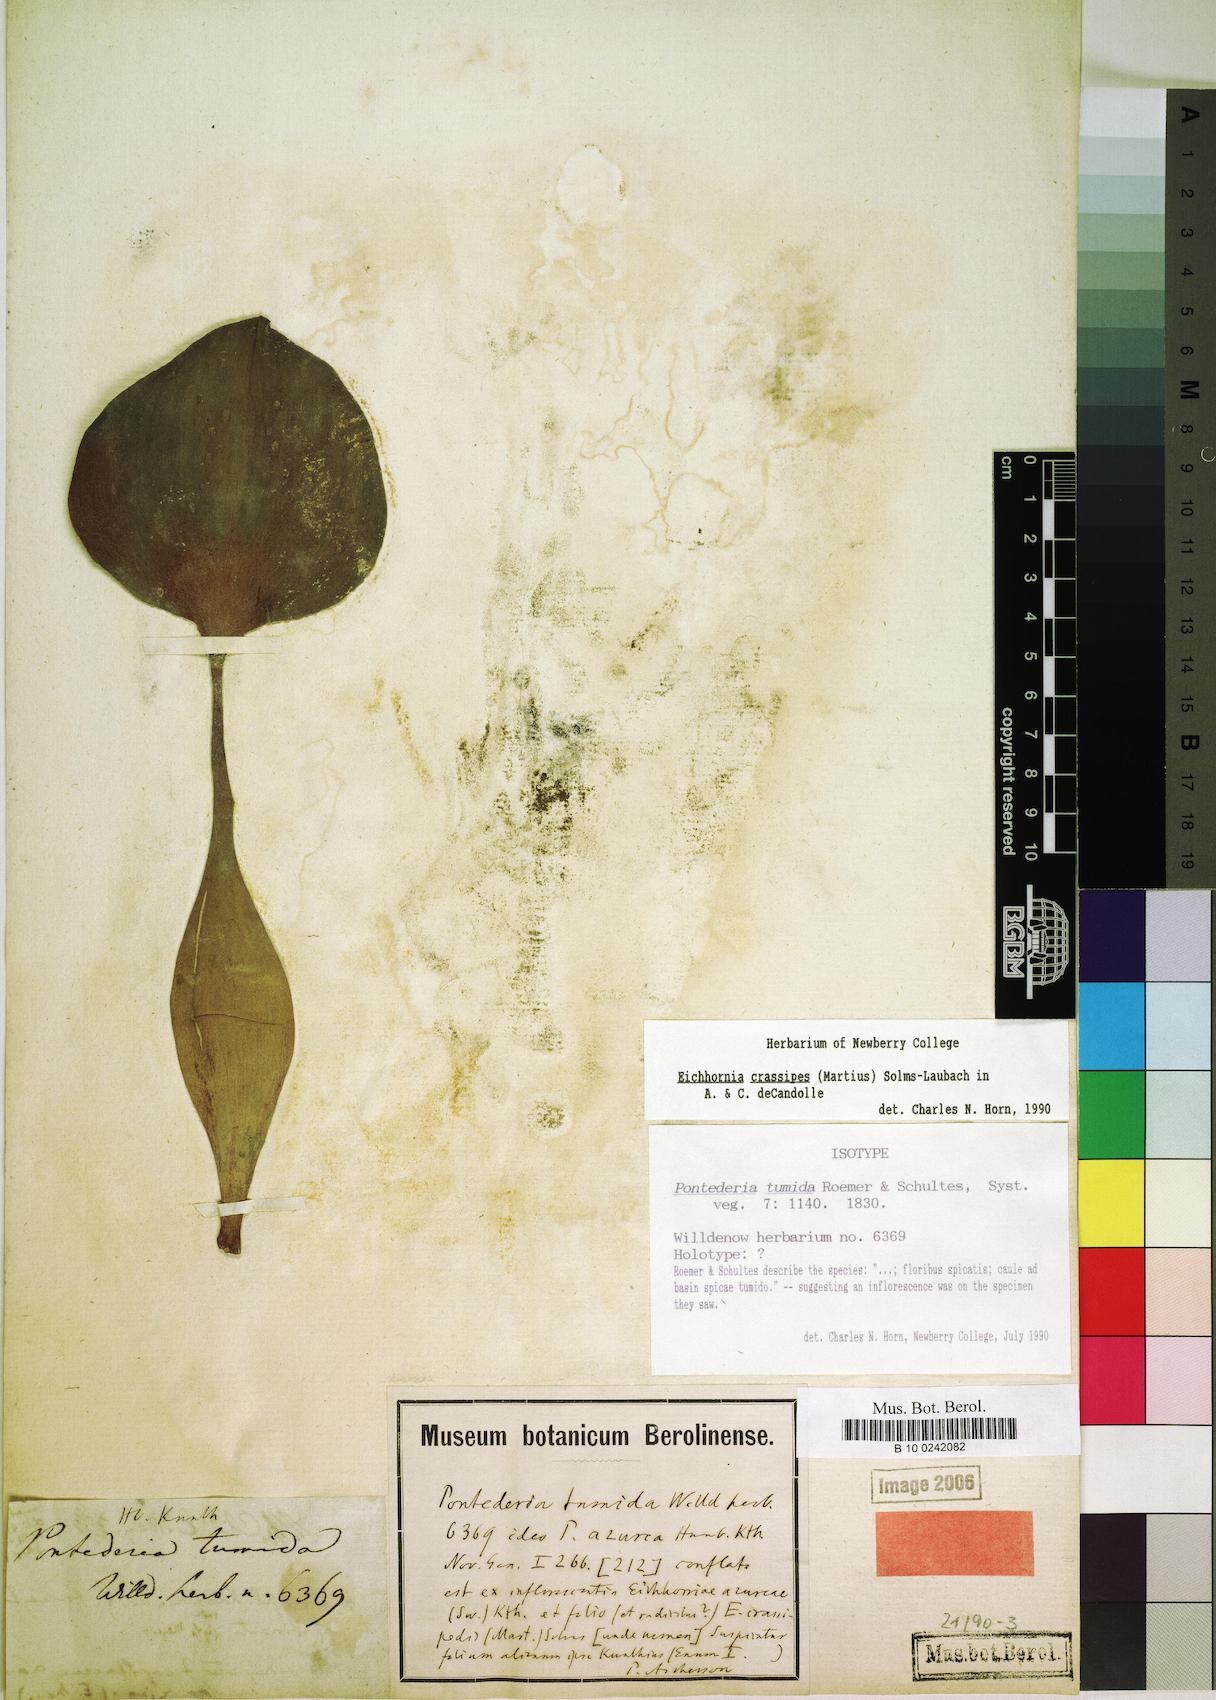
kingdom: Plantae
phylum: Tracheophyta
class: Liliopsida
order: Commelinales
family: Pontederiaceae
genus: Pontederia
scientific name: Pontederia crassipes
